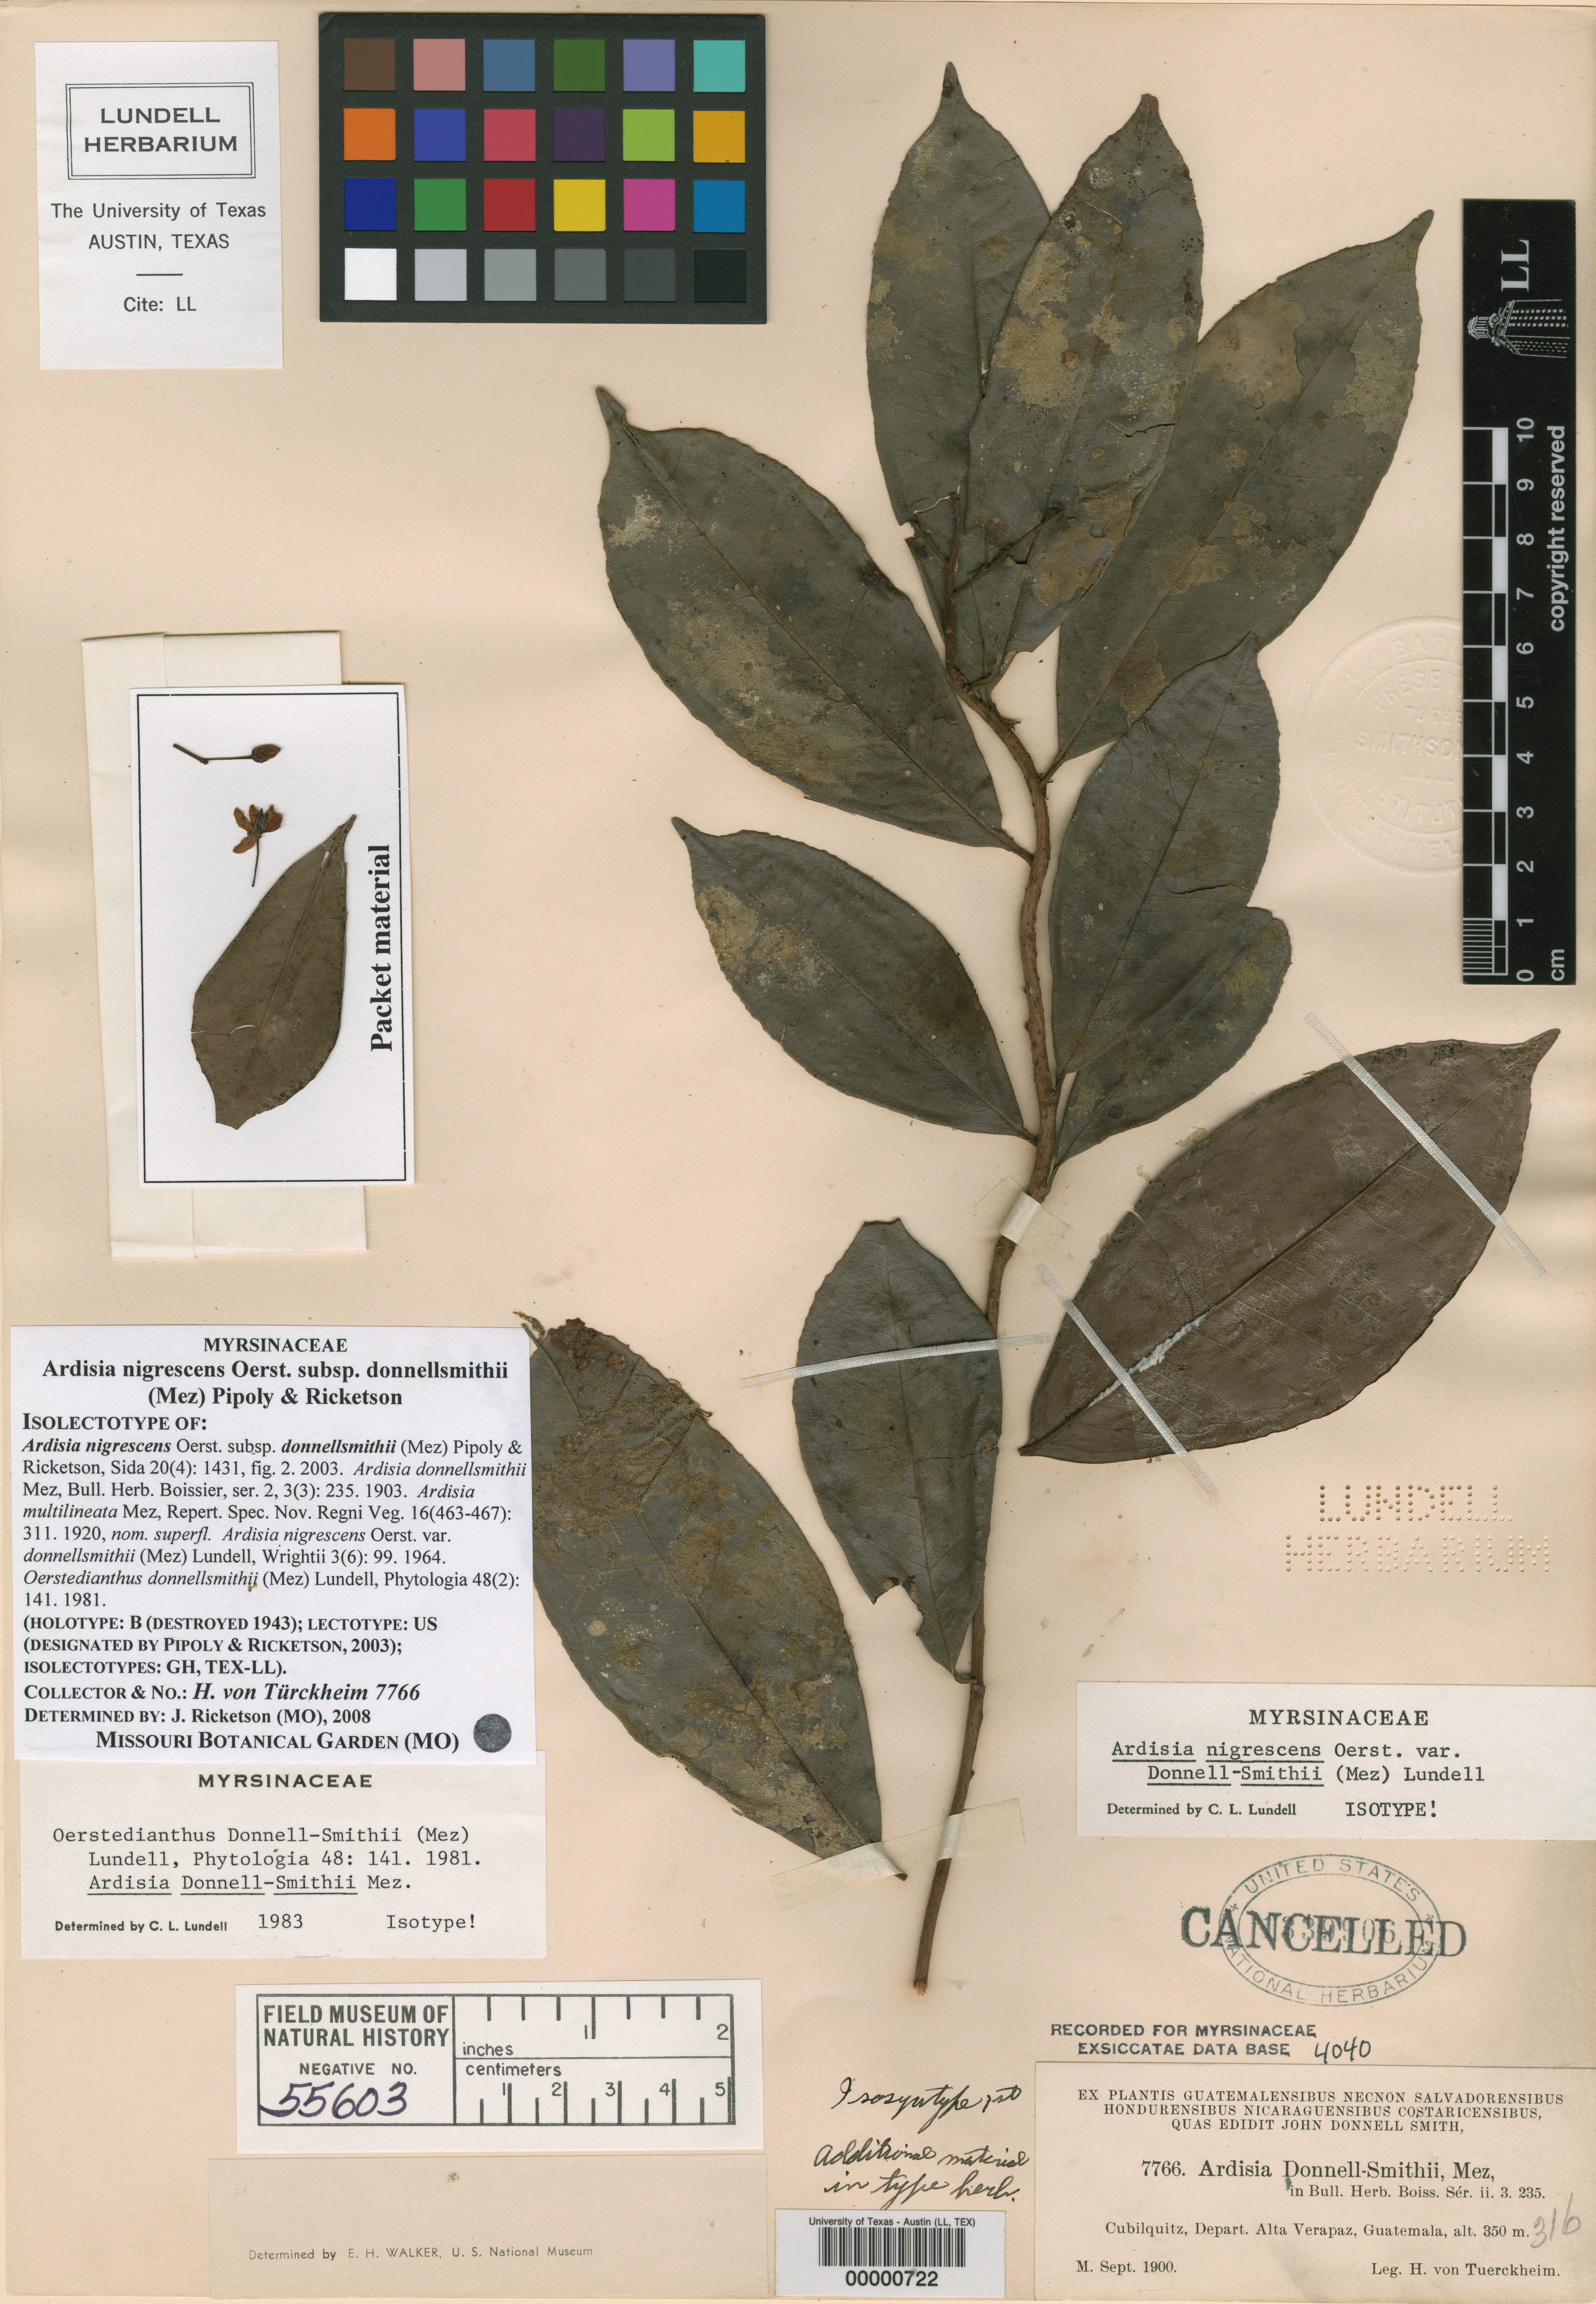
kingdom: Plantae
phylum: Tracheophyta
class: Magnoliopsida
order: Ericales
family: Primulaceae
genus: Ardisia
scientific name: Ardisia nigrescens
